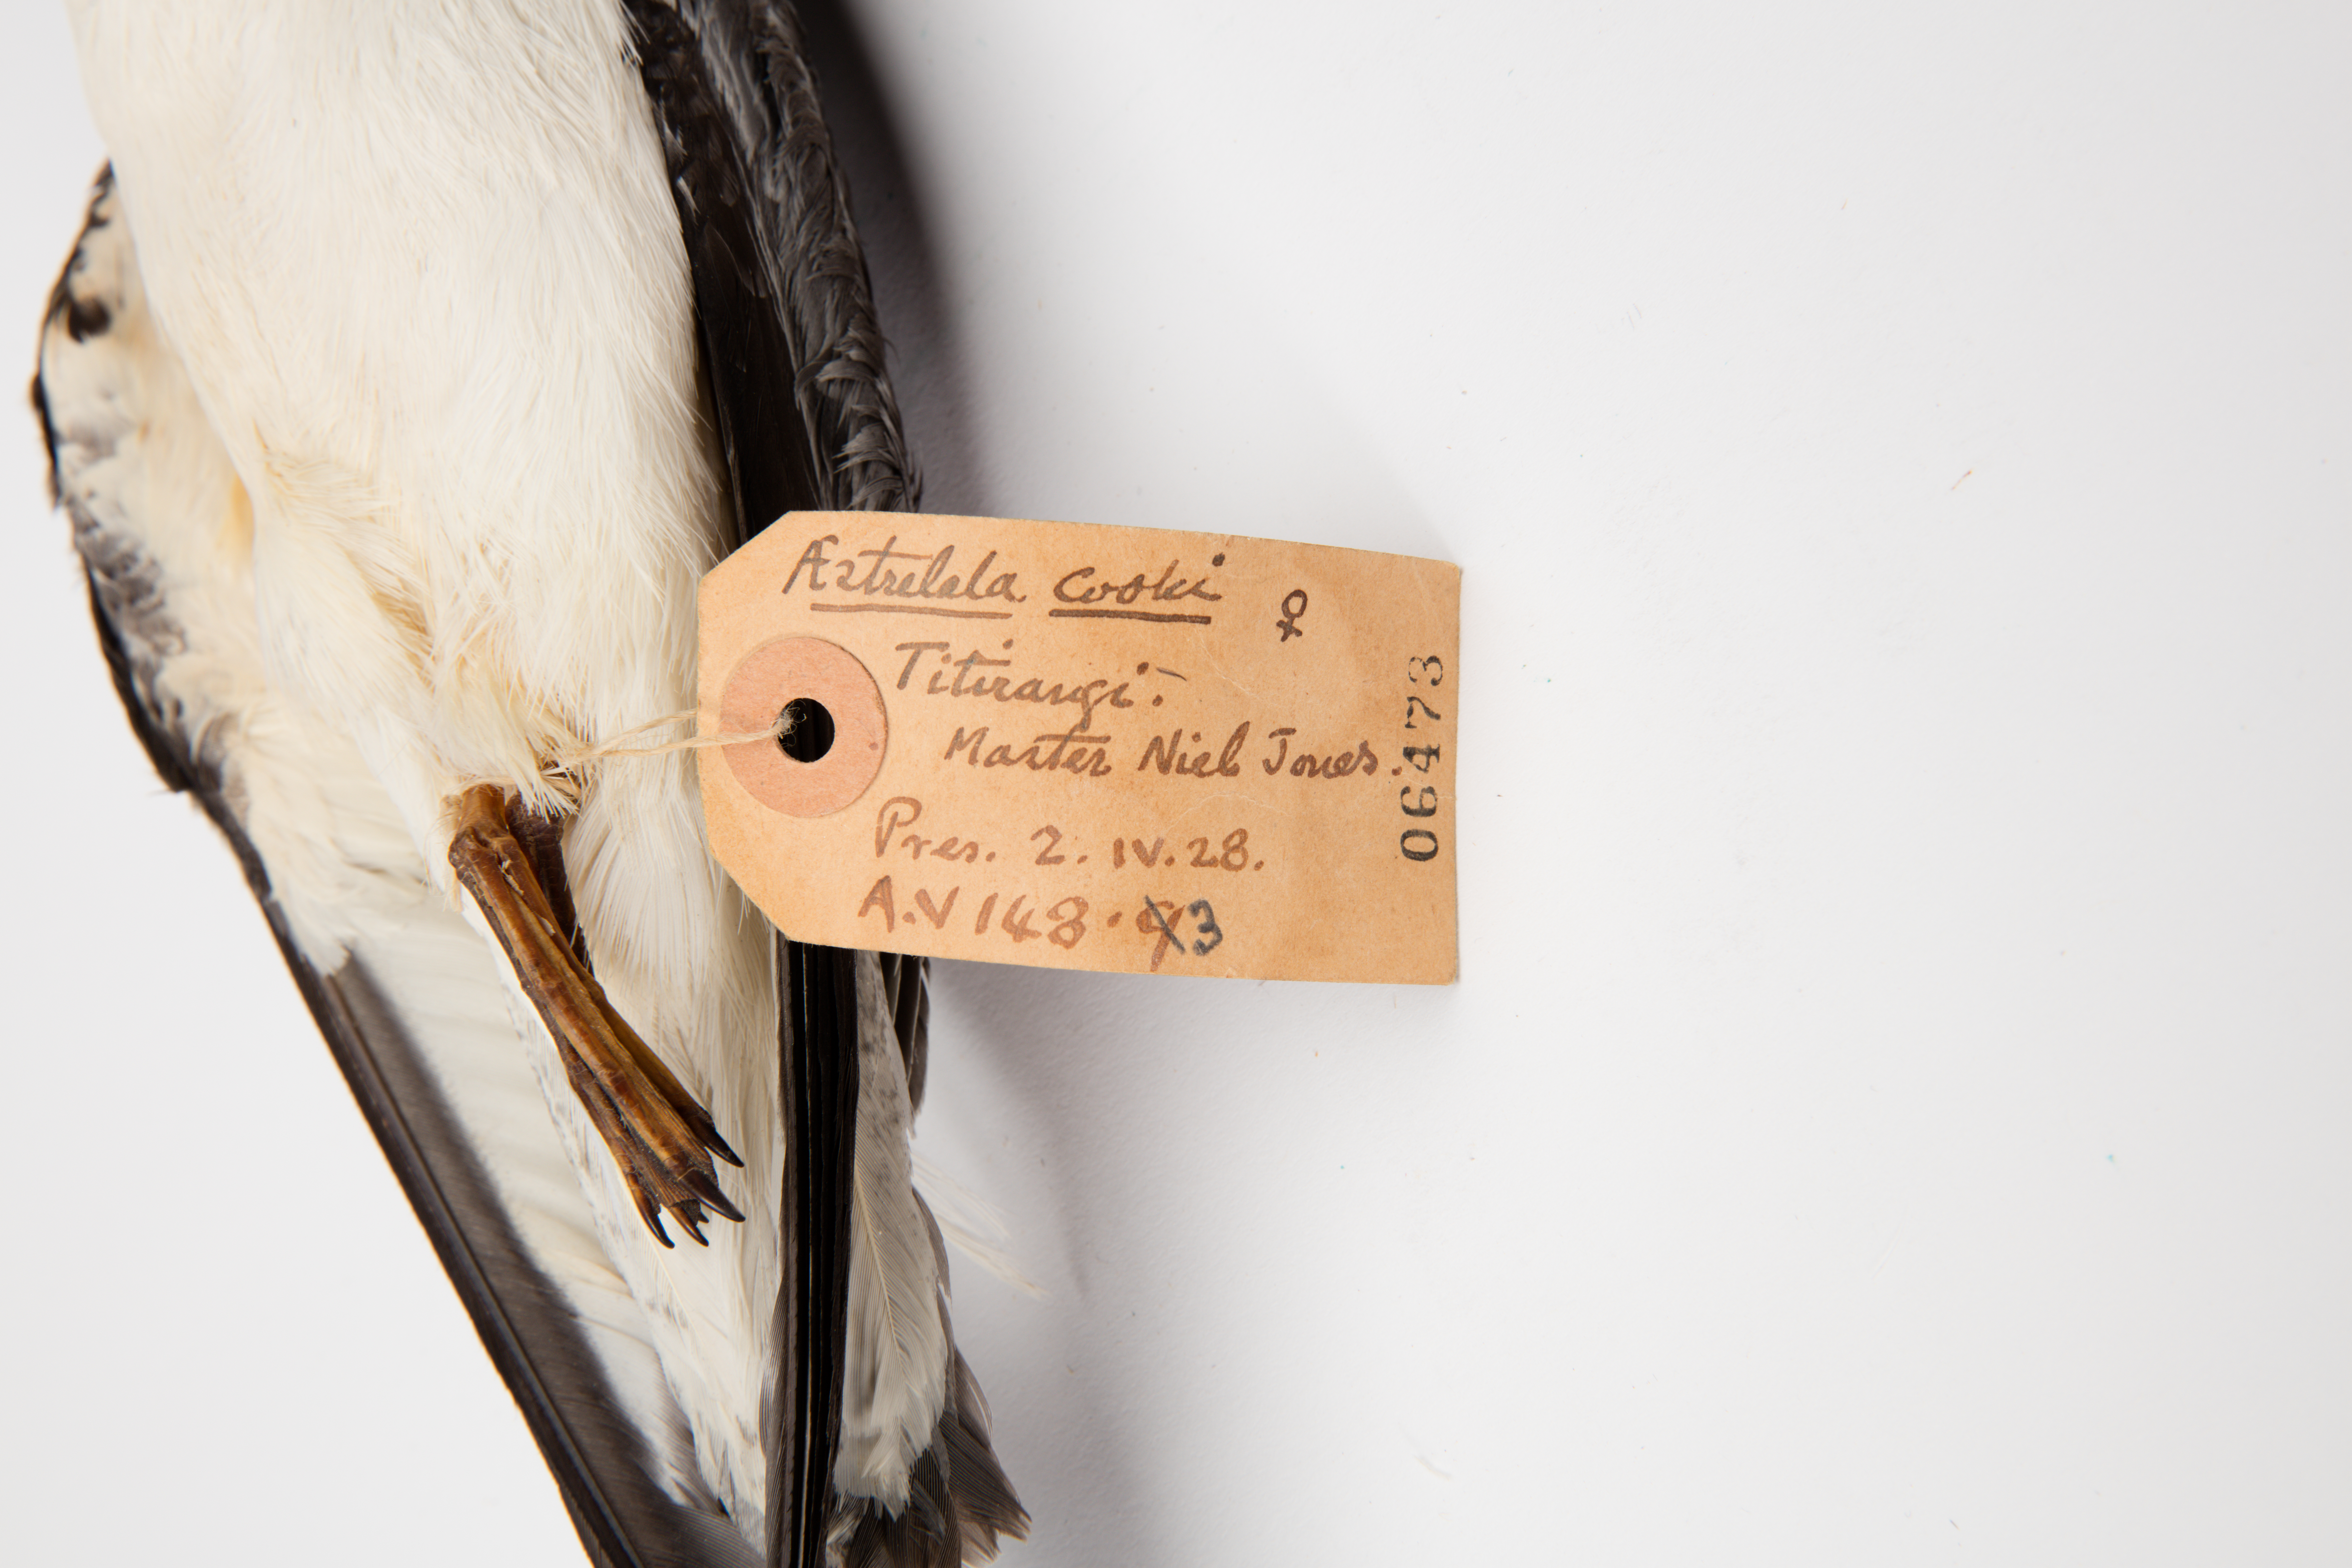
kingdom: Animalia
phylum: Chordata
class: Aves
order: Procellariiformes
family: Procellariidae
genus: Pterodroma
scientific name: Pterodroma cookii
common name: Cook's petrel
